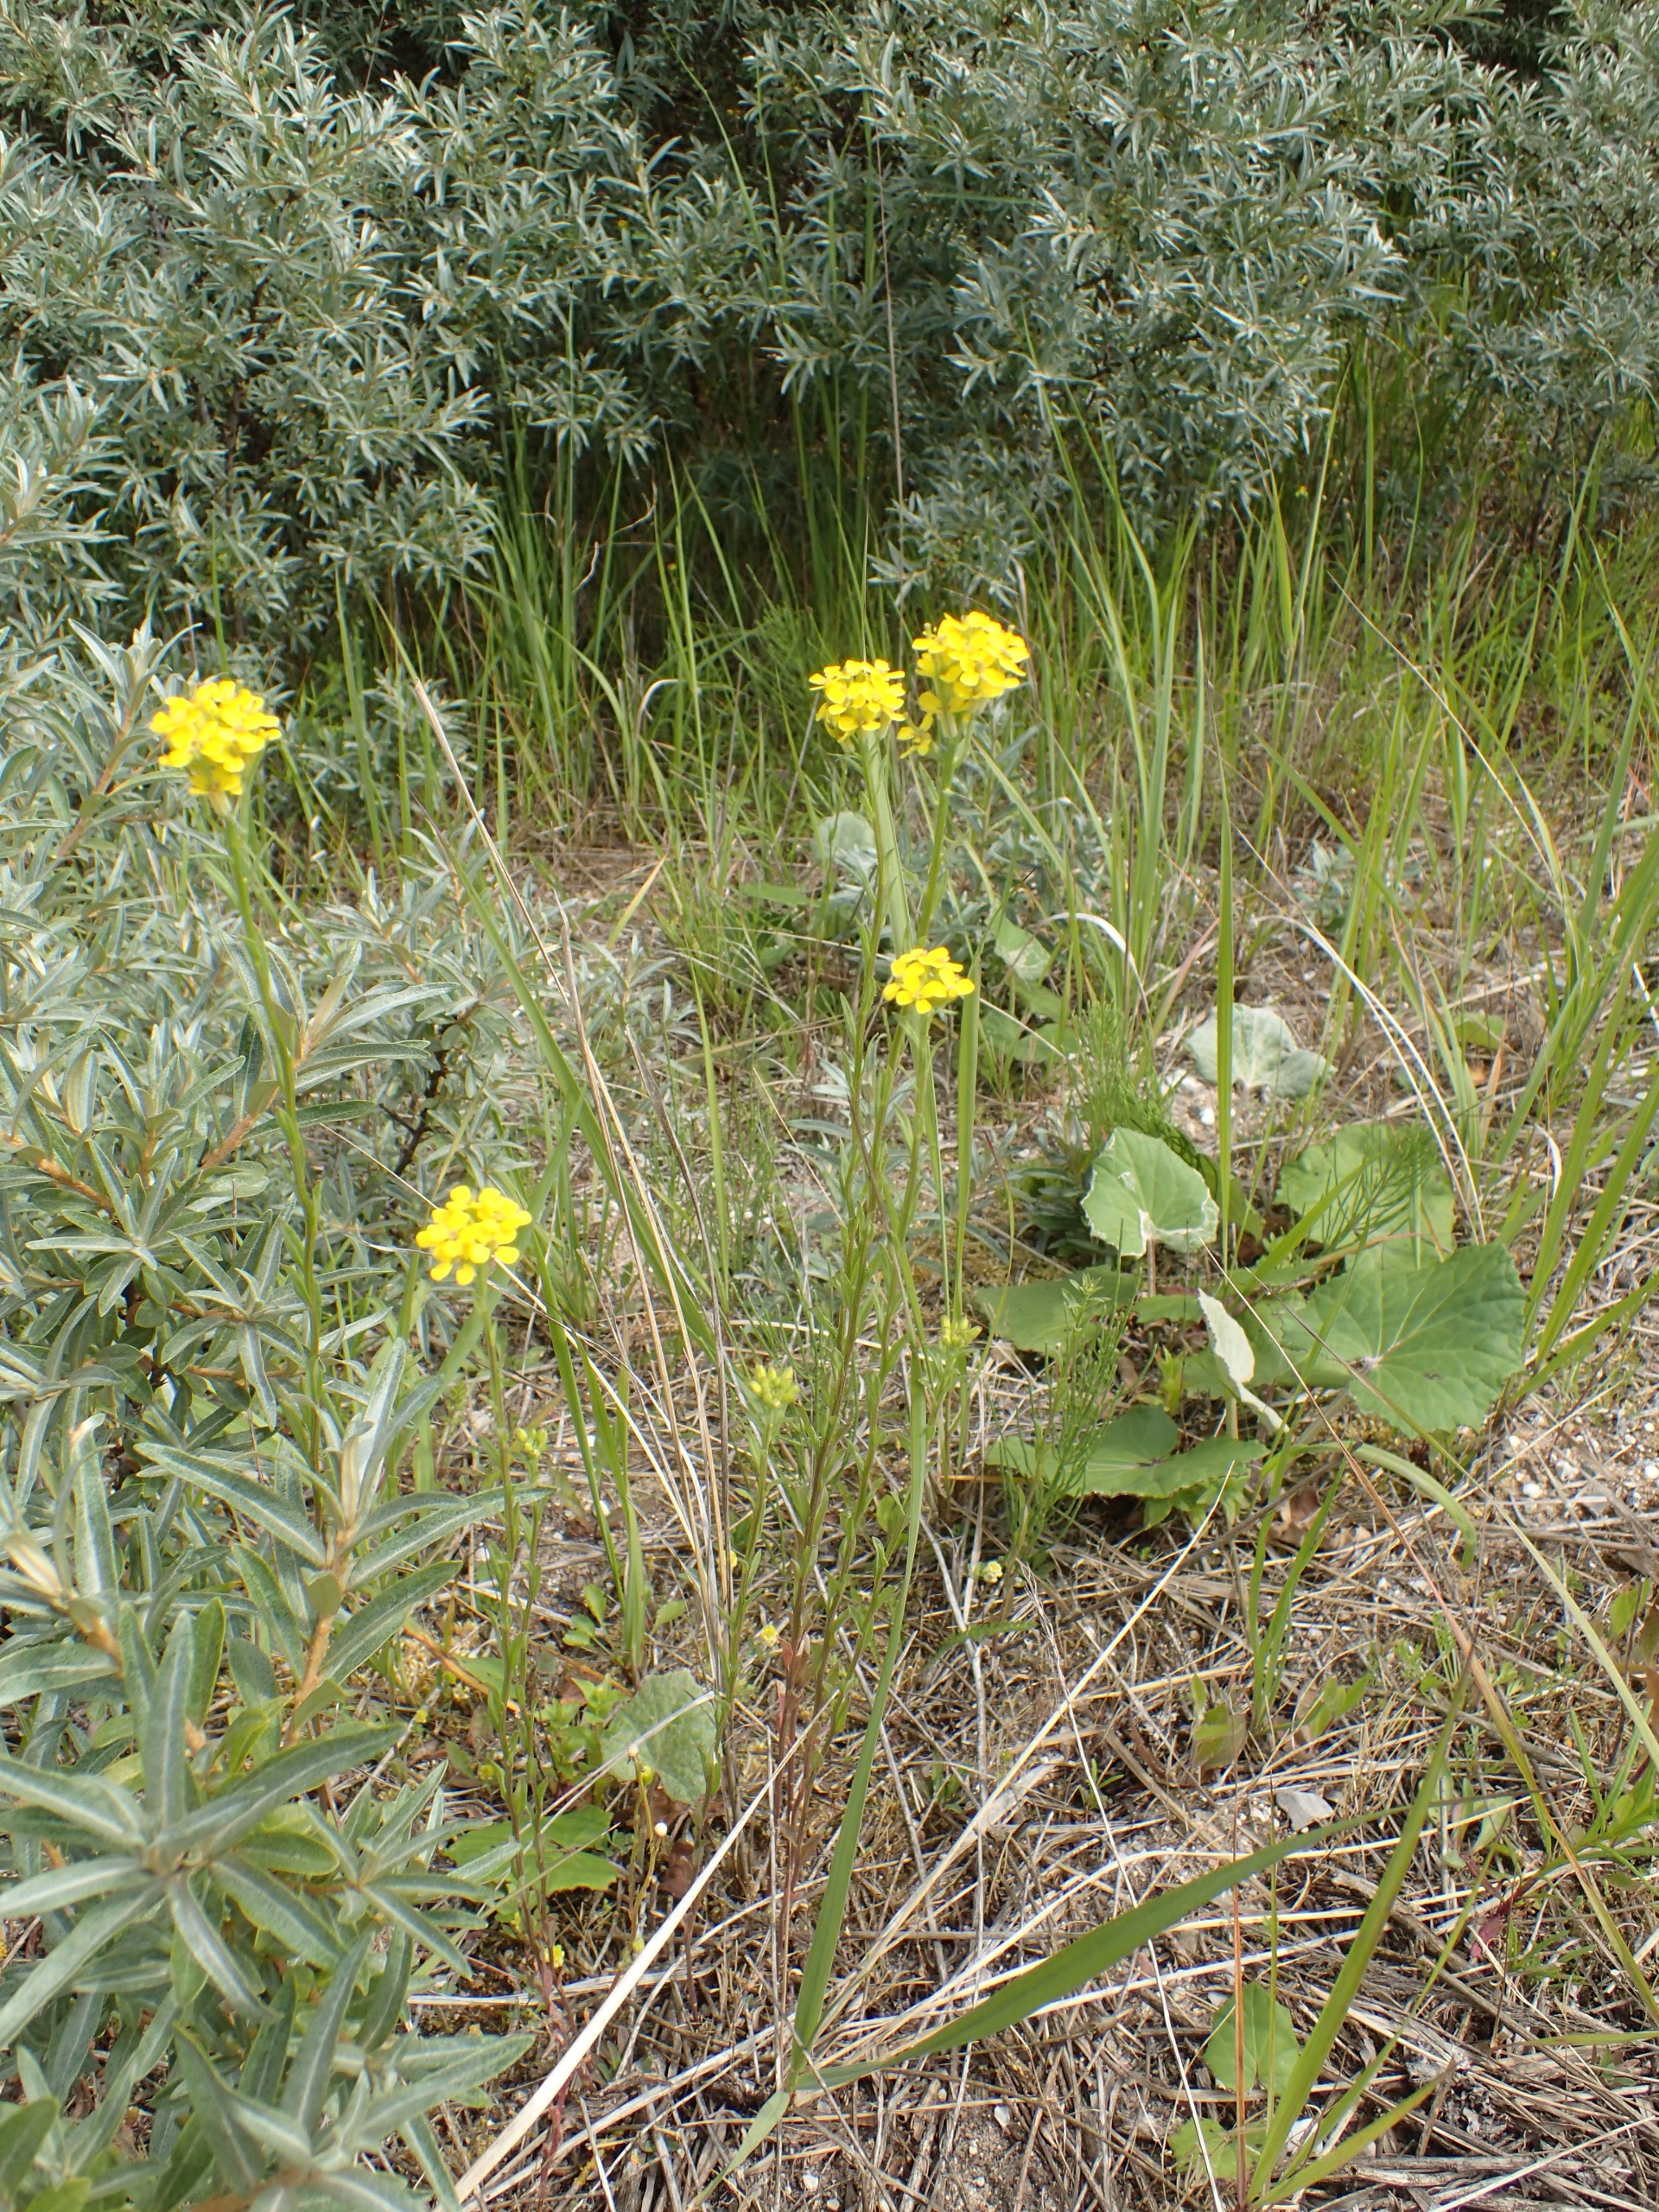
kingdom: Plantae
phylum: Tracheophyta
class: Magnoliopsida
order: Brassicales
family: Brassicaceae
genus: Erysimum
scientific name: Erysimum marschallianum
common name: Hård hjørneklap
